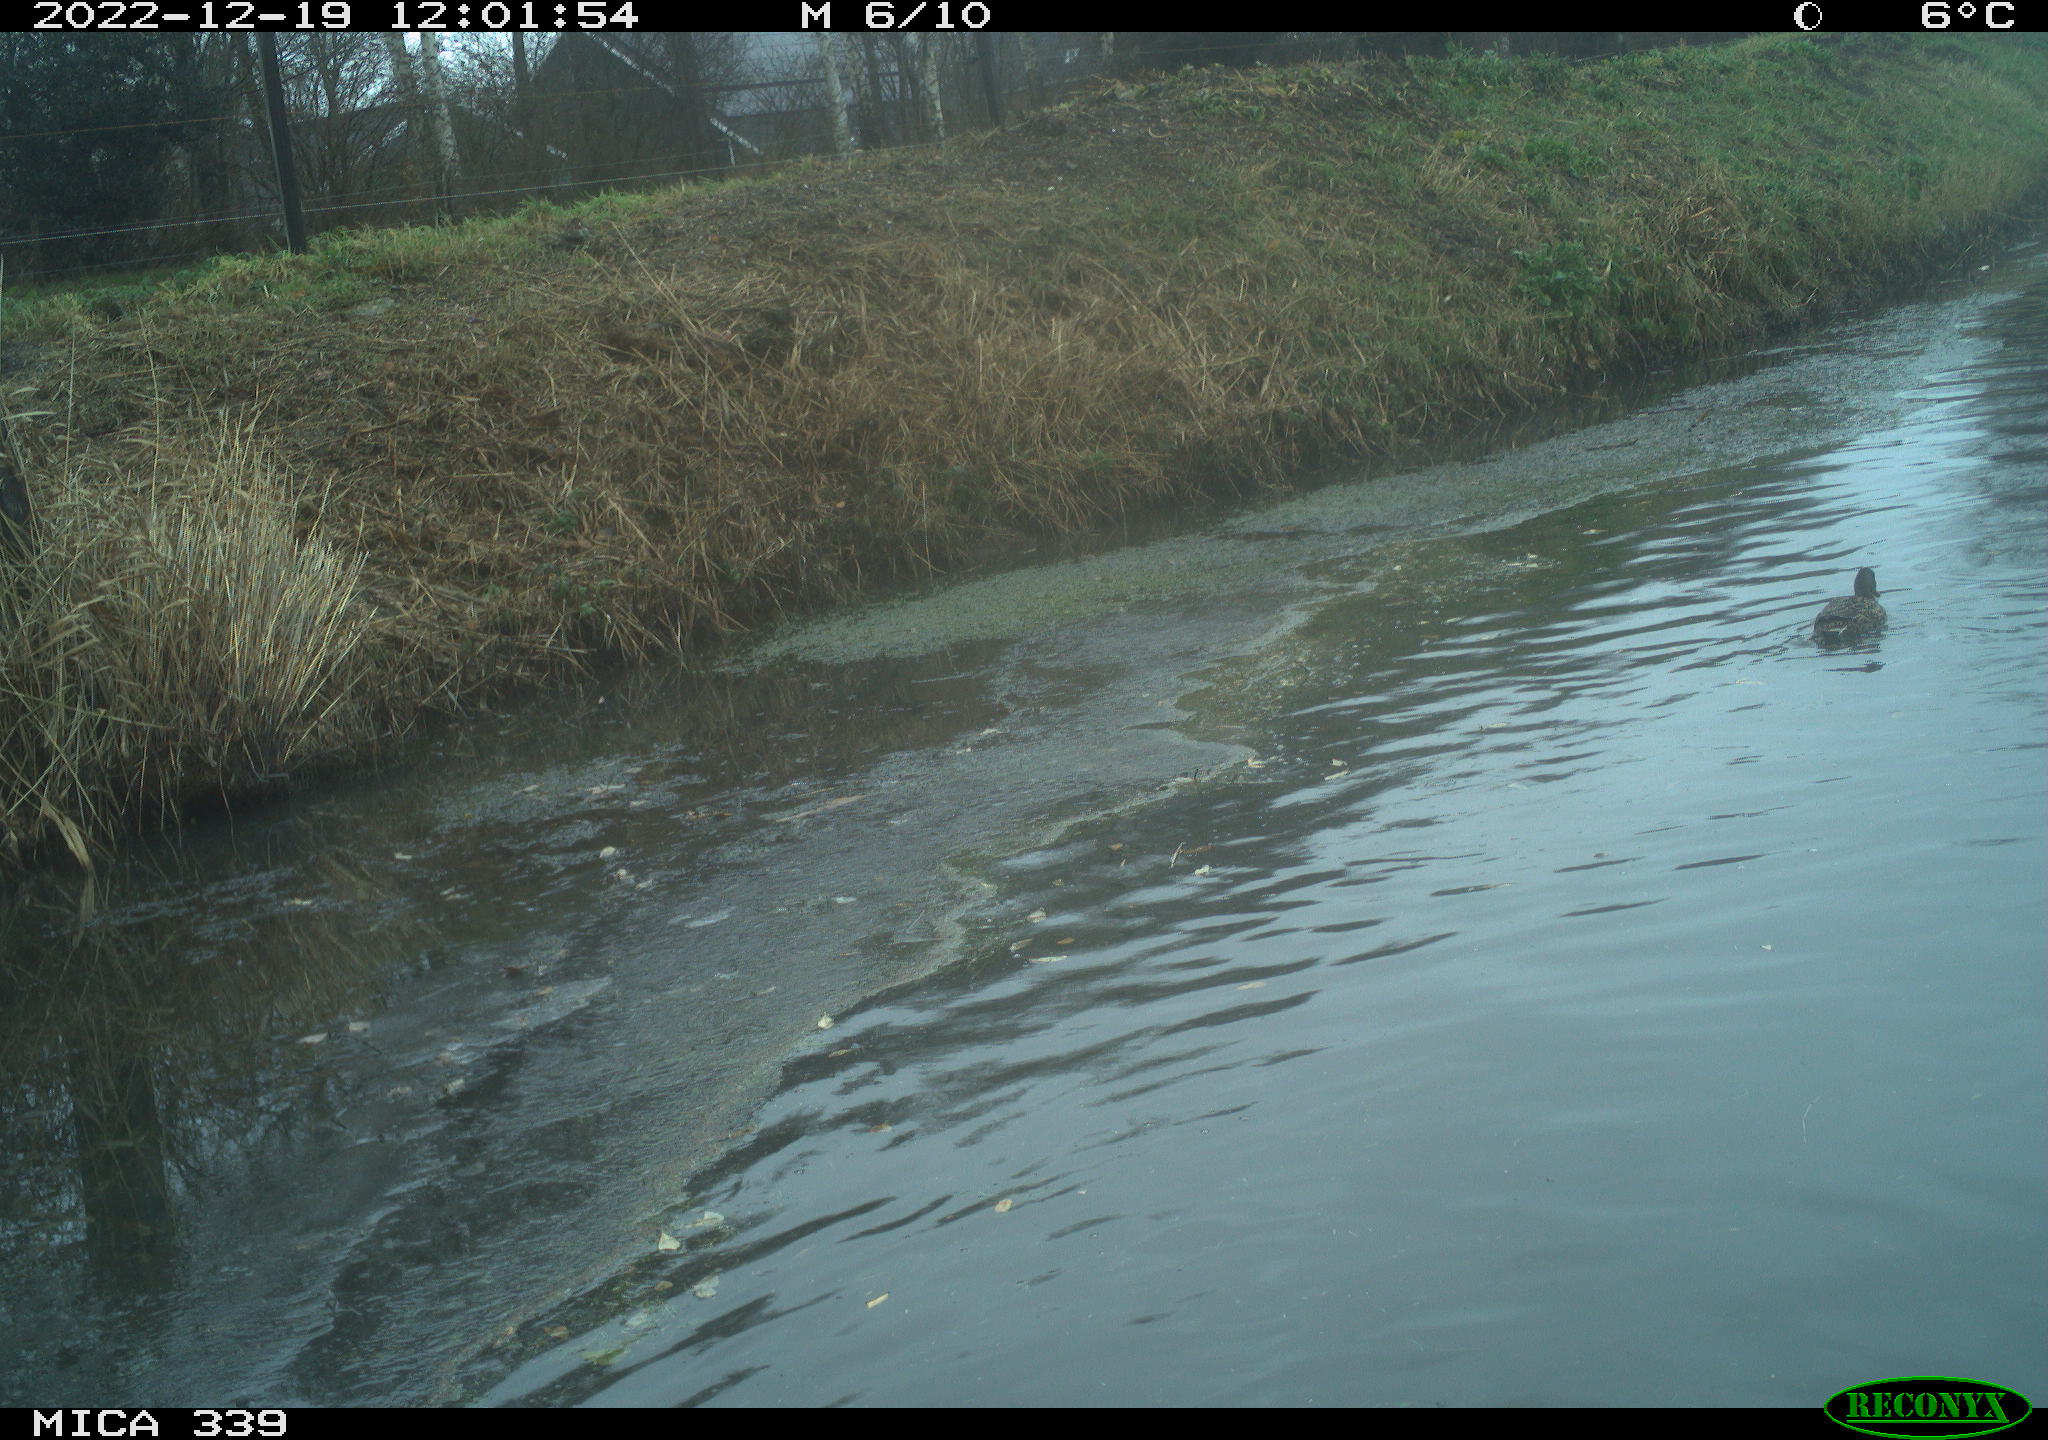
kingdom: Animalia
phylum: Chordata
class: Aves
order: Anseriformes
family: Anatidae
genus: Anas
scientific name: Anas
